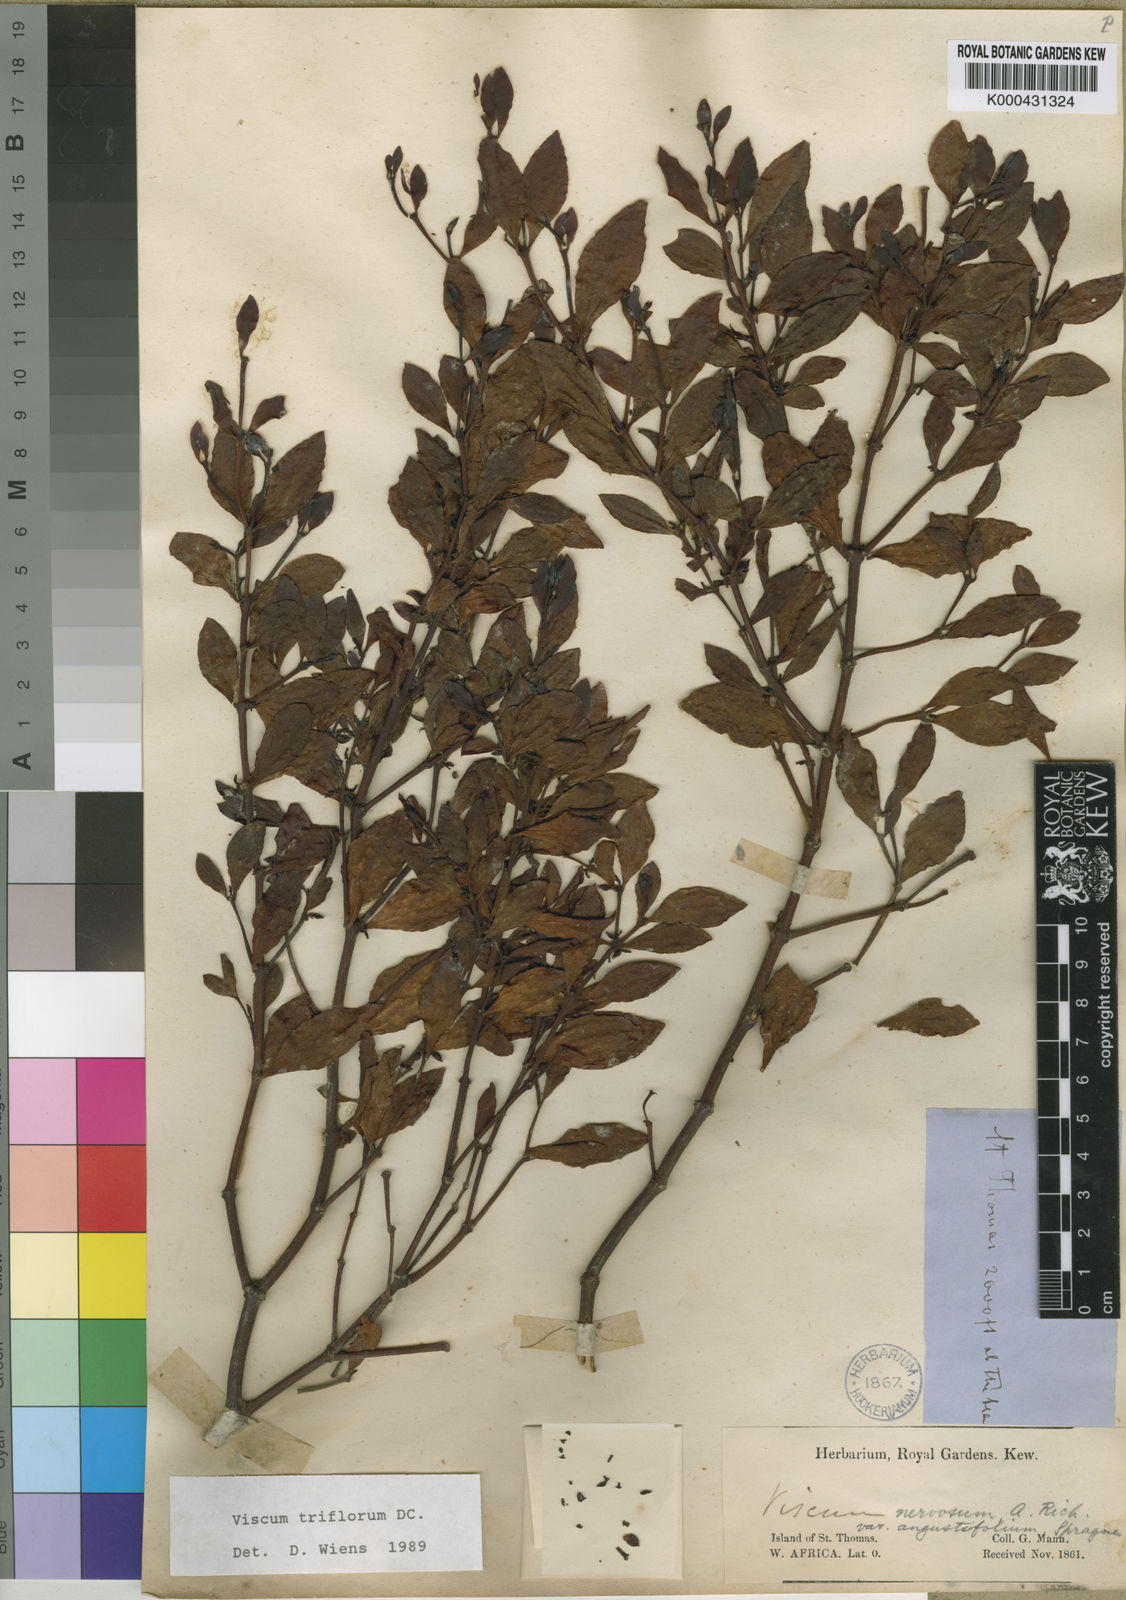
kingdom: Plantae
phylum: Tracheophyta
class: Magnoliopsida
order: Santalales
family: Viscaceae
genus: Viscum
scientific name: Viscum triflorum
